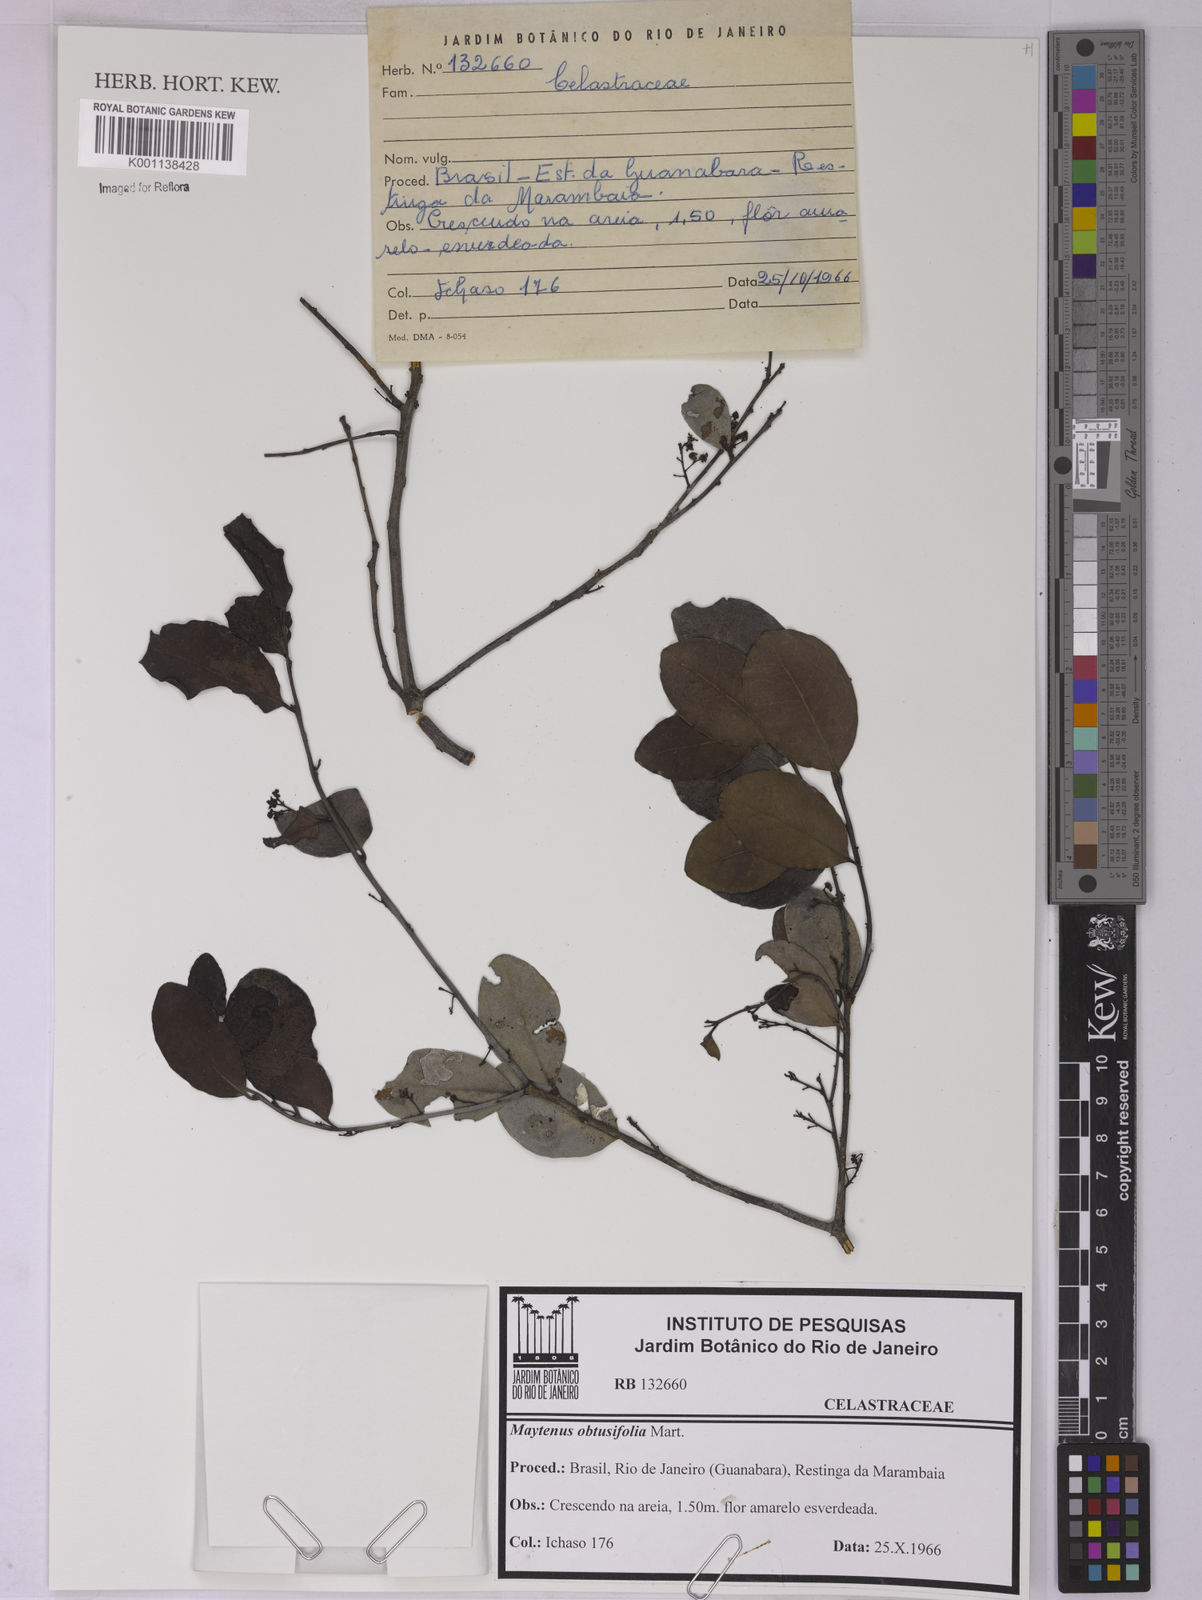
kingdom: Plantae
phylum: Tracheophyta
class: Magnoliopsida
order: Celastrales
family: Celastraceae
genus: Monteverdia
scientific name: Monteverdia obtusifolia
